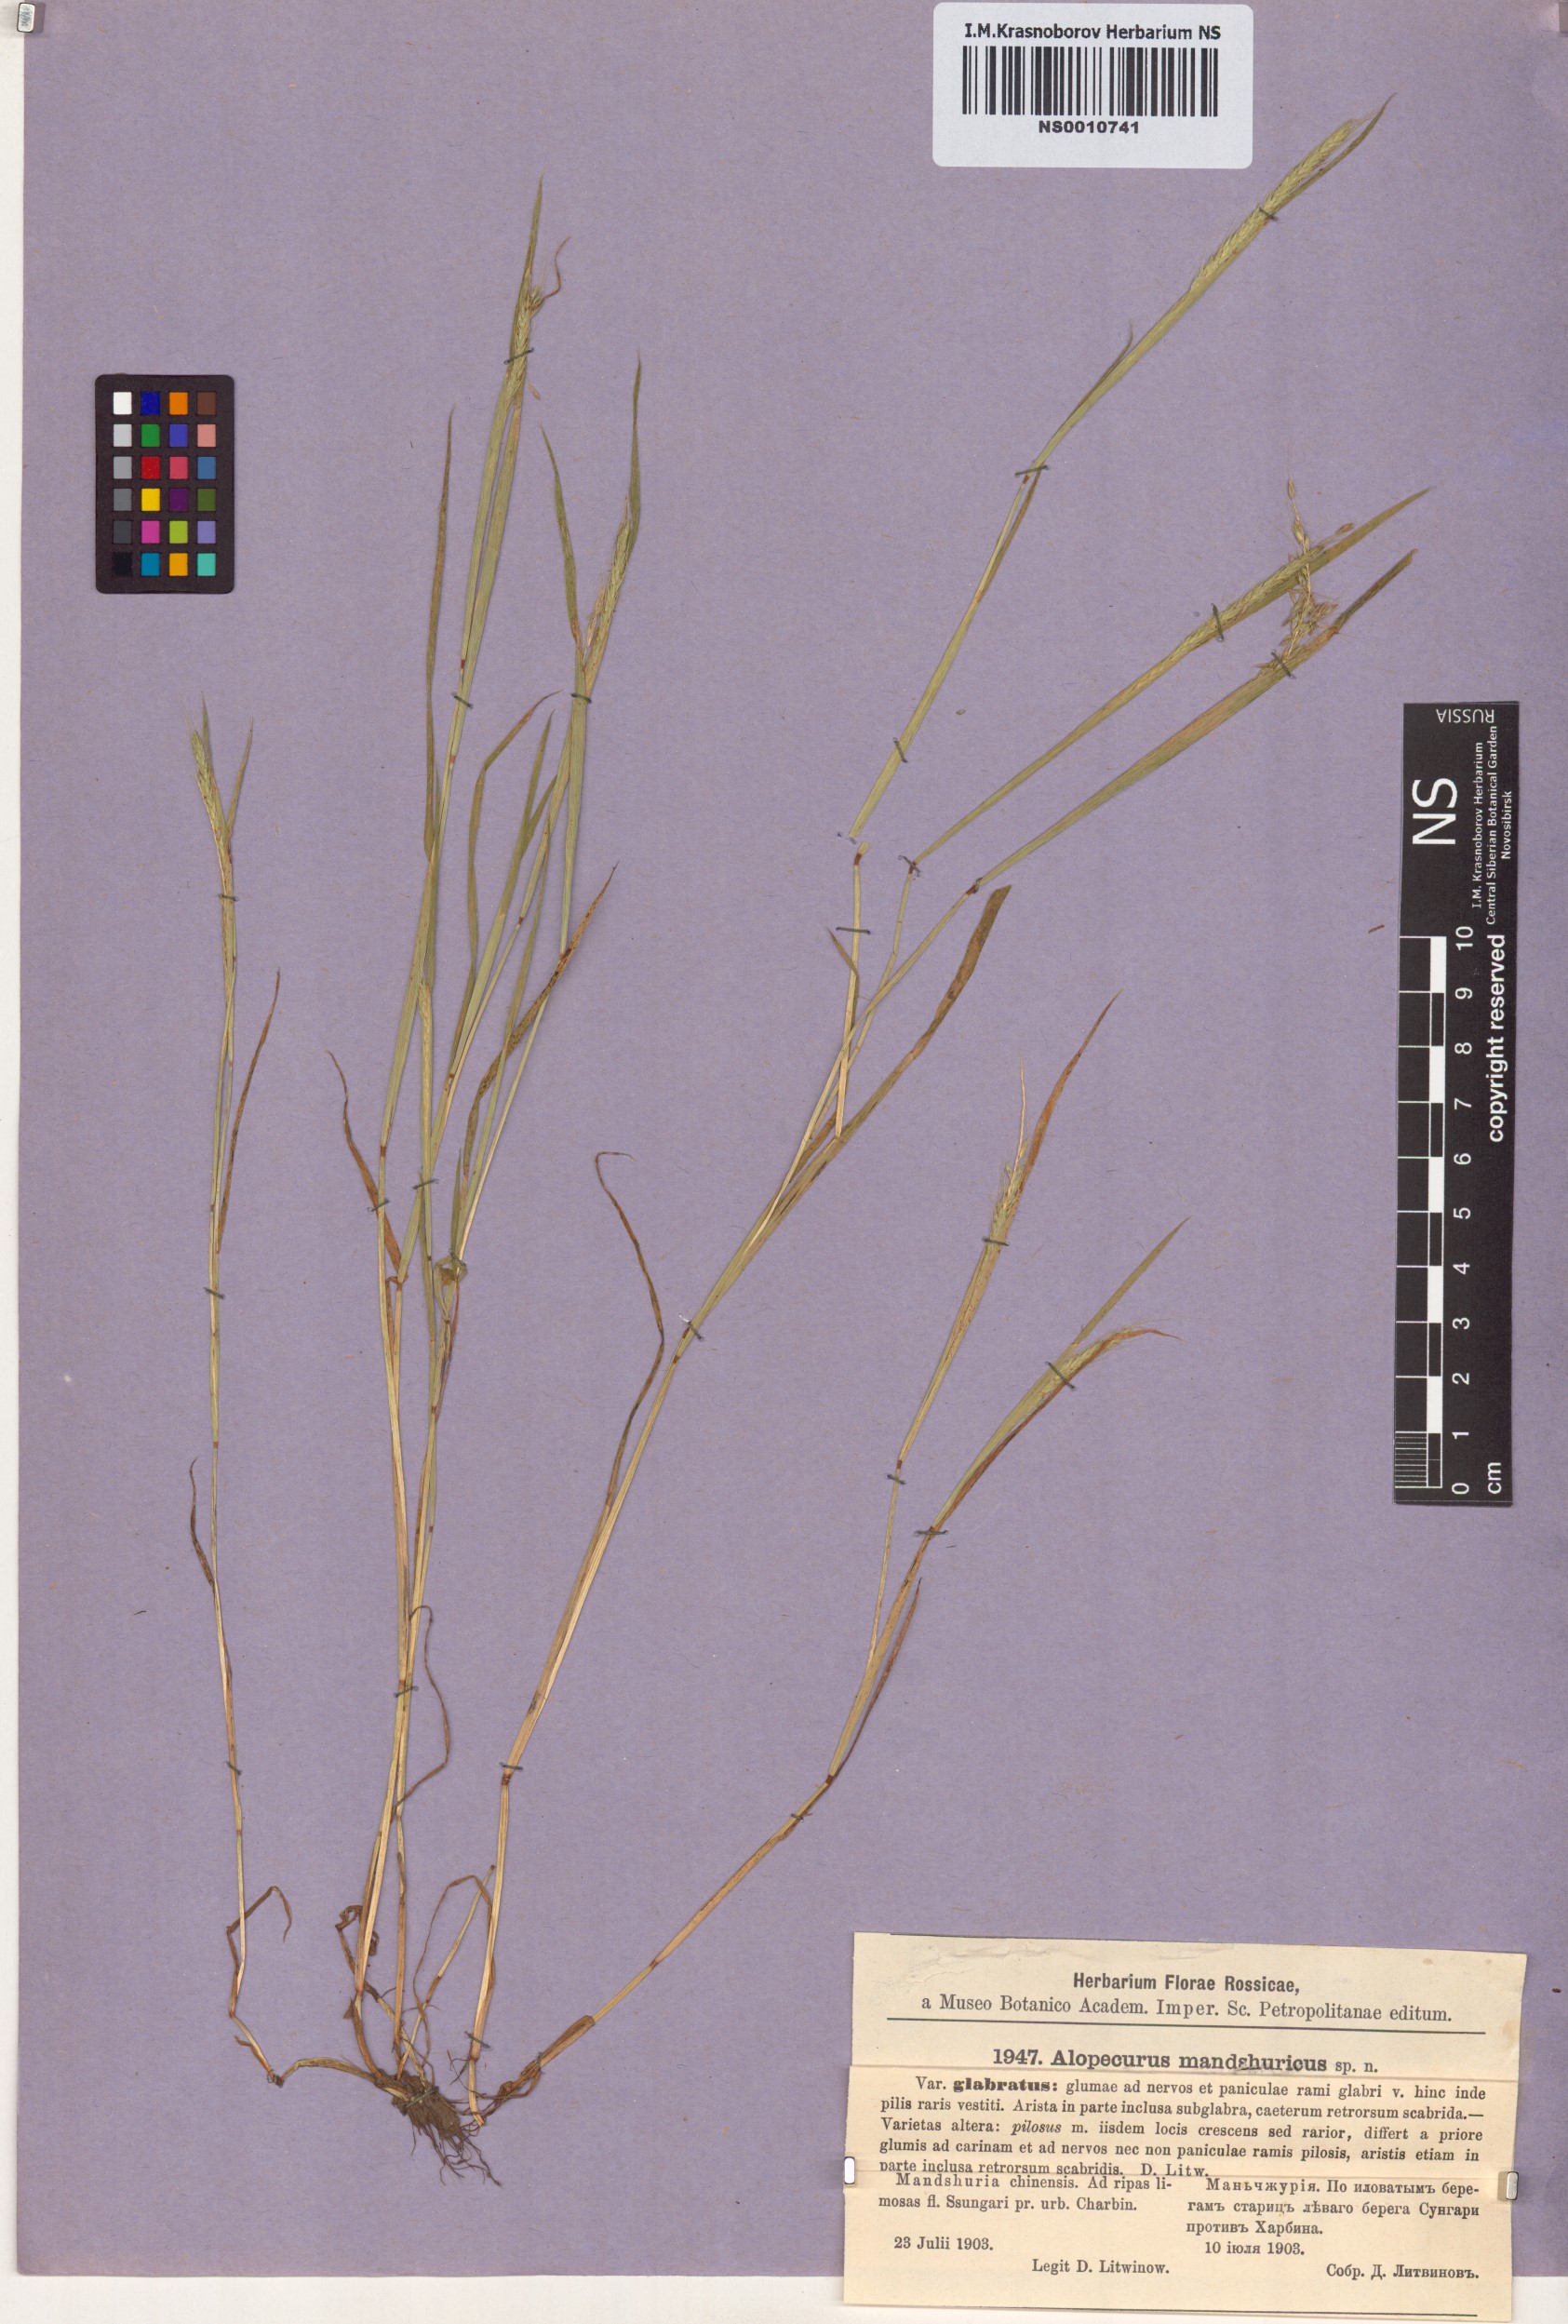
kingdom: Plantae
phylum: Tracheophyta
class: Liliopsida
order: Poales
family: Poaceae
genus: Alopecurus
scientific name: Alopecurus longiaristatus
